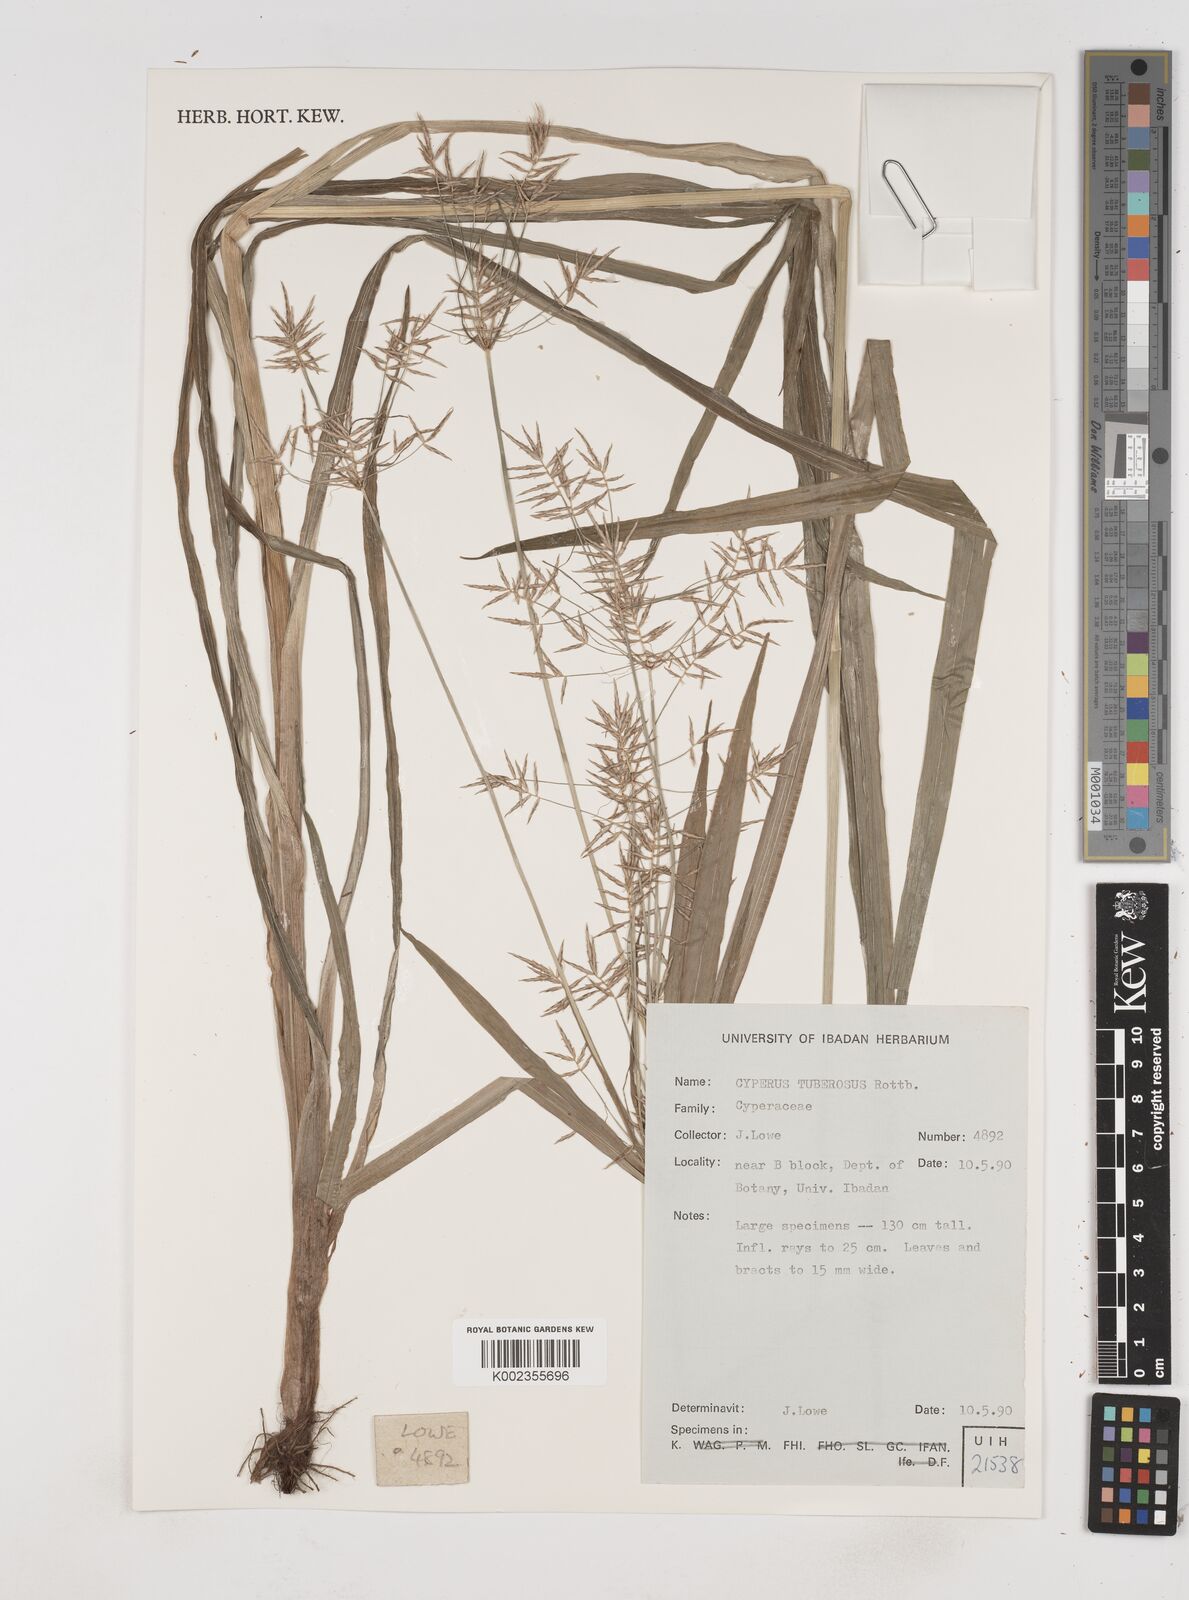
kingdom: Plantae
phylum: Tracheophyta
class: Liliopsida
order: Poales
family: Cyperaceae
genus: Cyperus
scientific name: Cyperus tuberosus
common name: Nut grass
